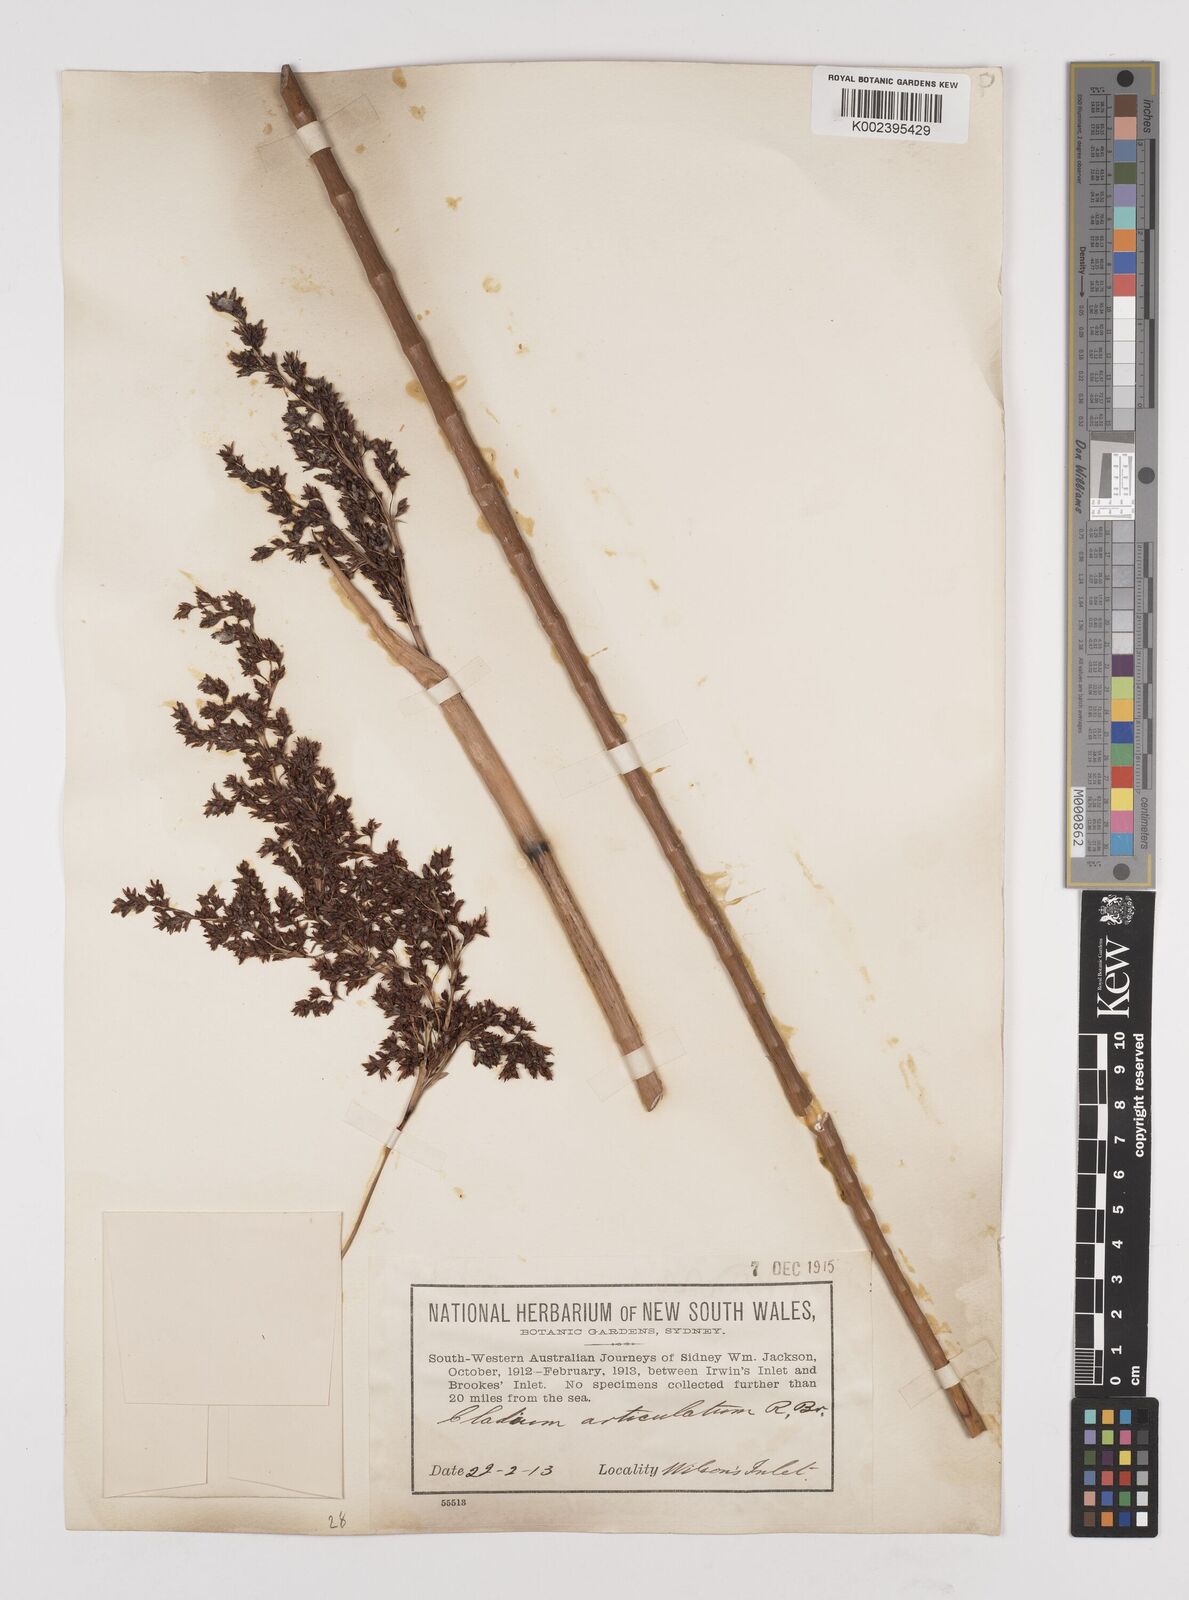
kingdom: Plantae
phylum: Tracheophyta
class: Liliopsida
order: Poales
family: Cyperaceae
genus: Machaerina
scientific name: Machaerina articulata
